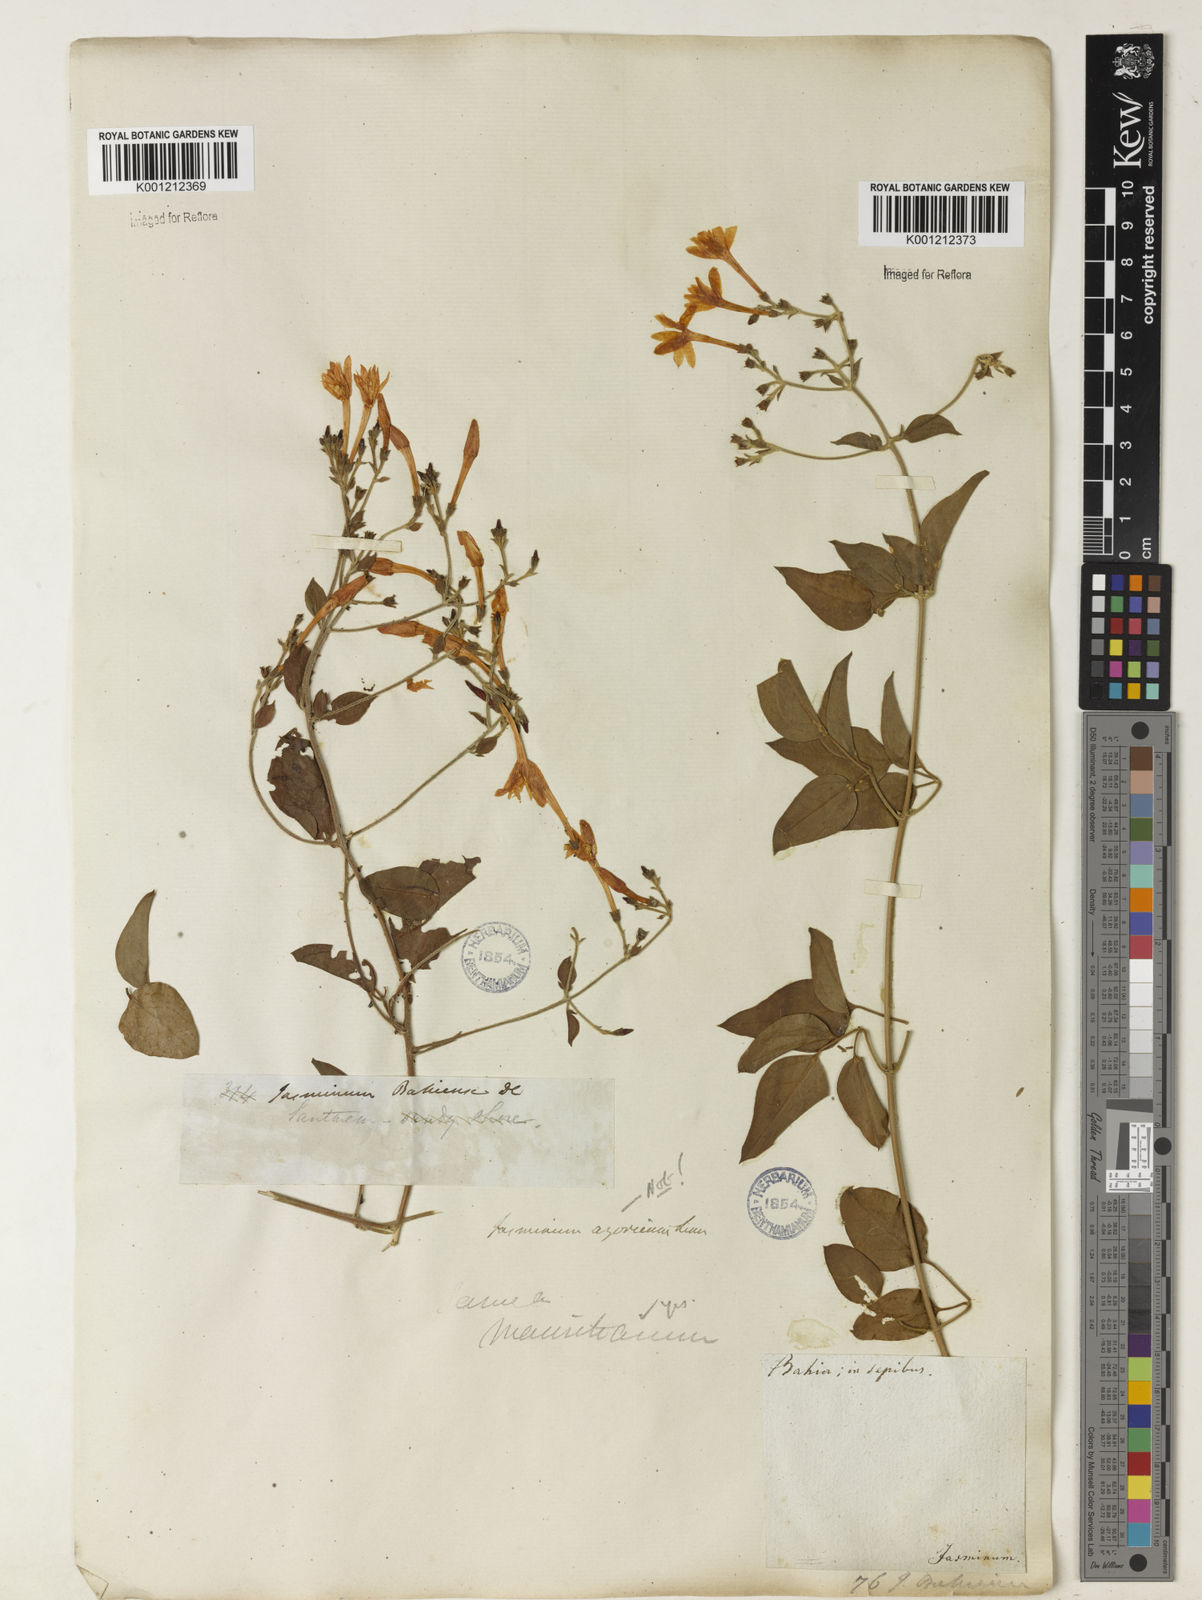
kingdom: Plantae
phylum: Tracheophyta
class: Magnoliopsida
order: Lamiales
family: Oleaceae
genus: Jasminum
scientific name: Jasminum fluminense
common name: Brazilian jasmine
